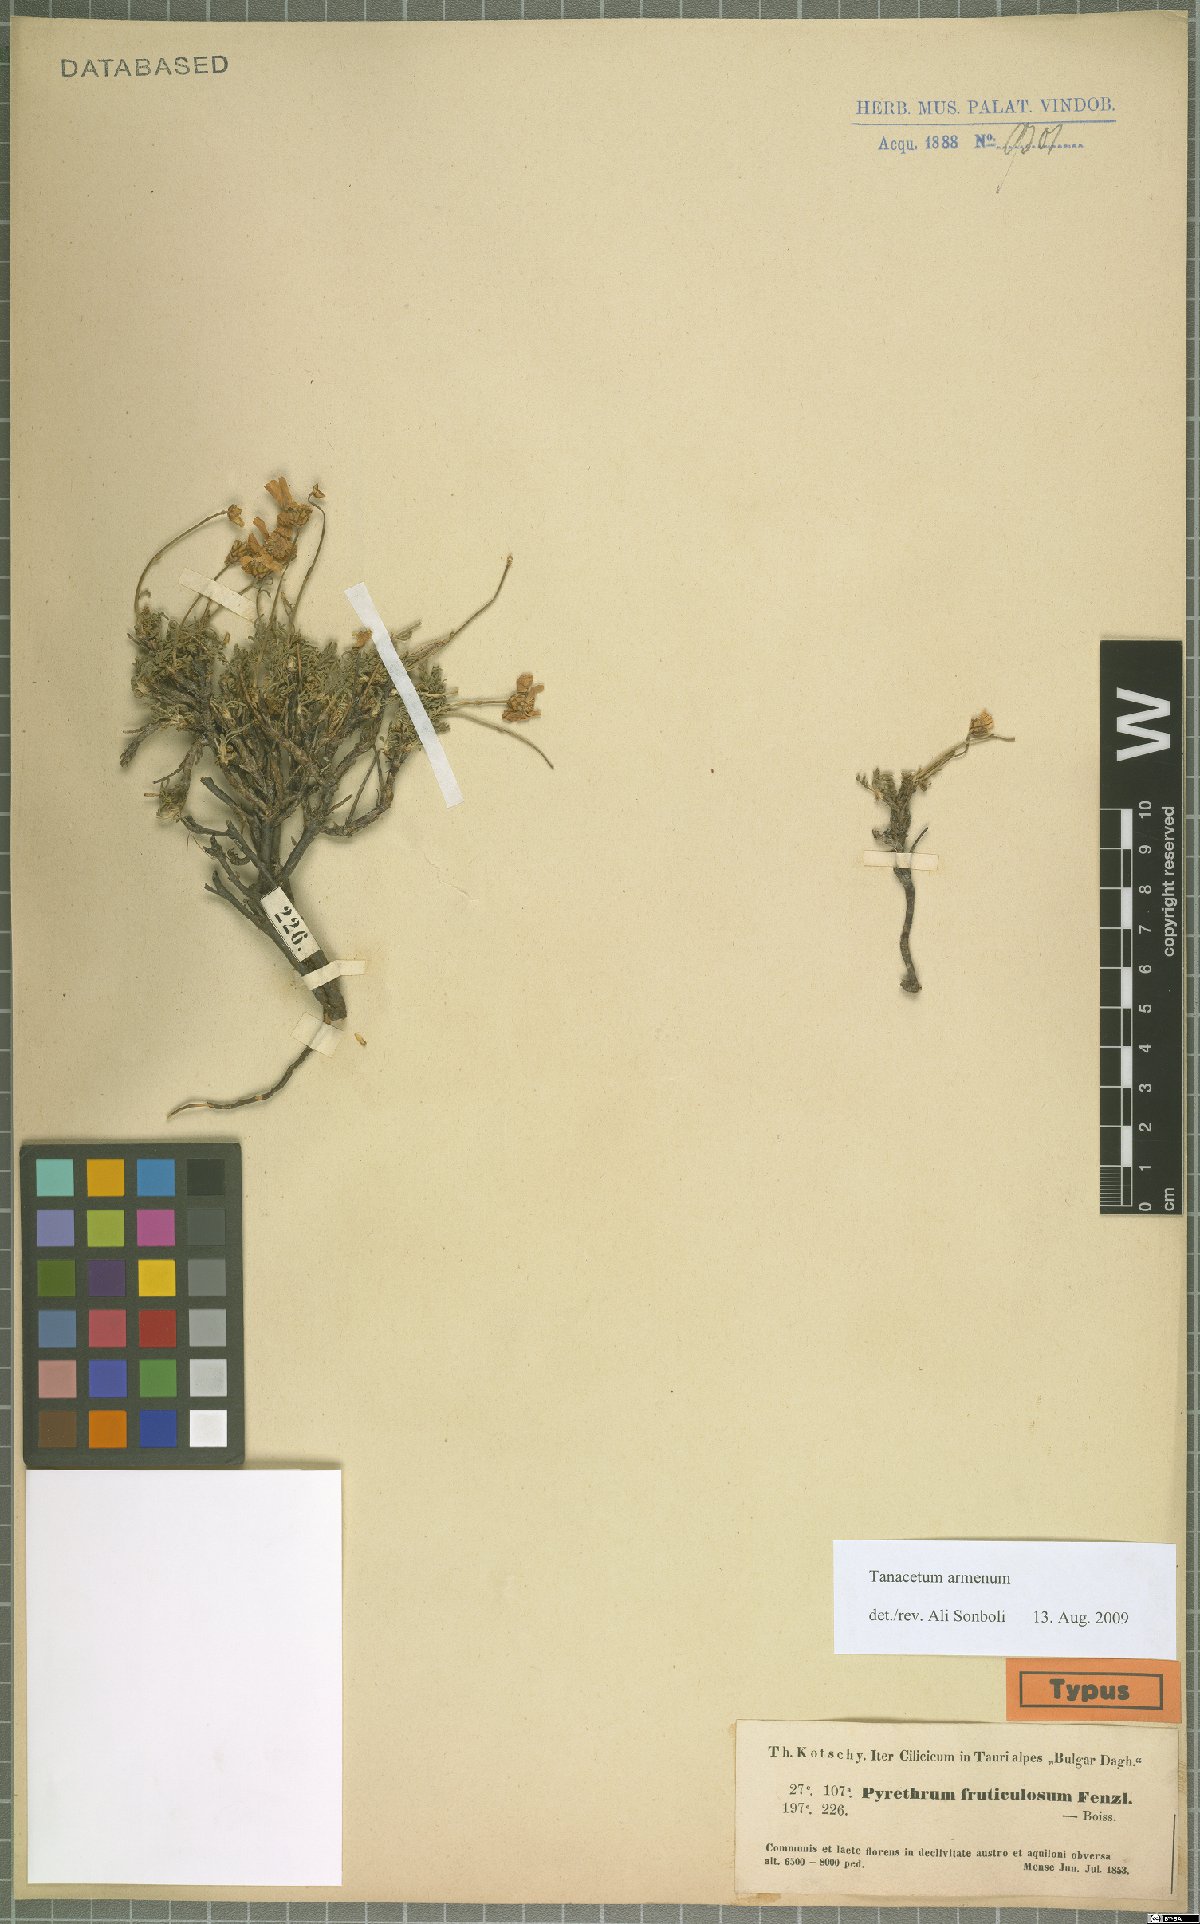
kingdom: Plantae
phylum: Tracheophyta
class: Magnoliopsida
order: Asterales
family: Asteraceae
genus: Tanacetum
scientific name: Tanacetum armenum
